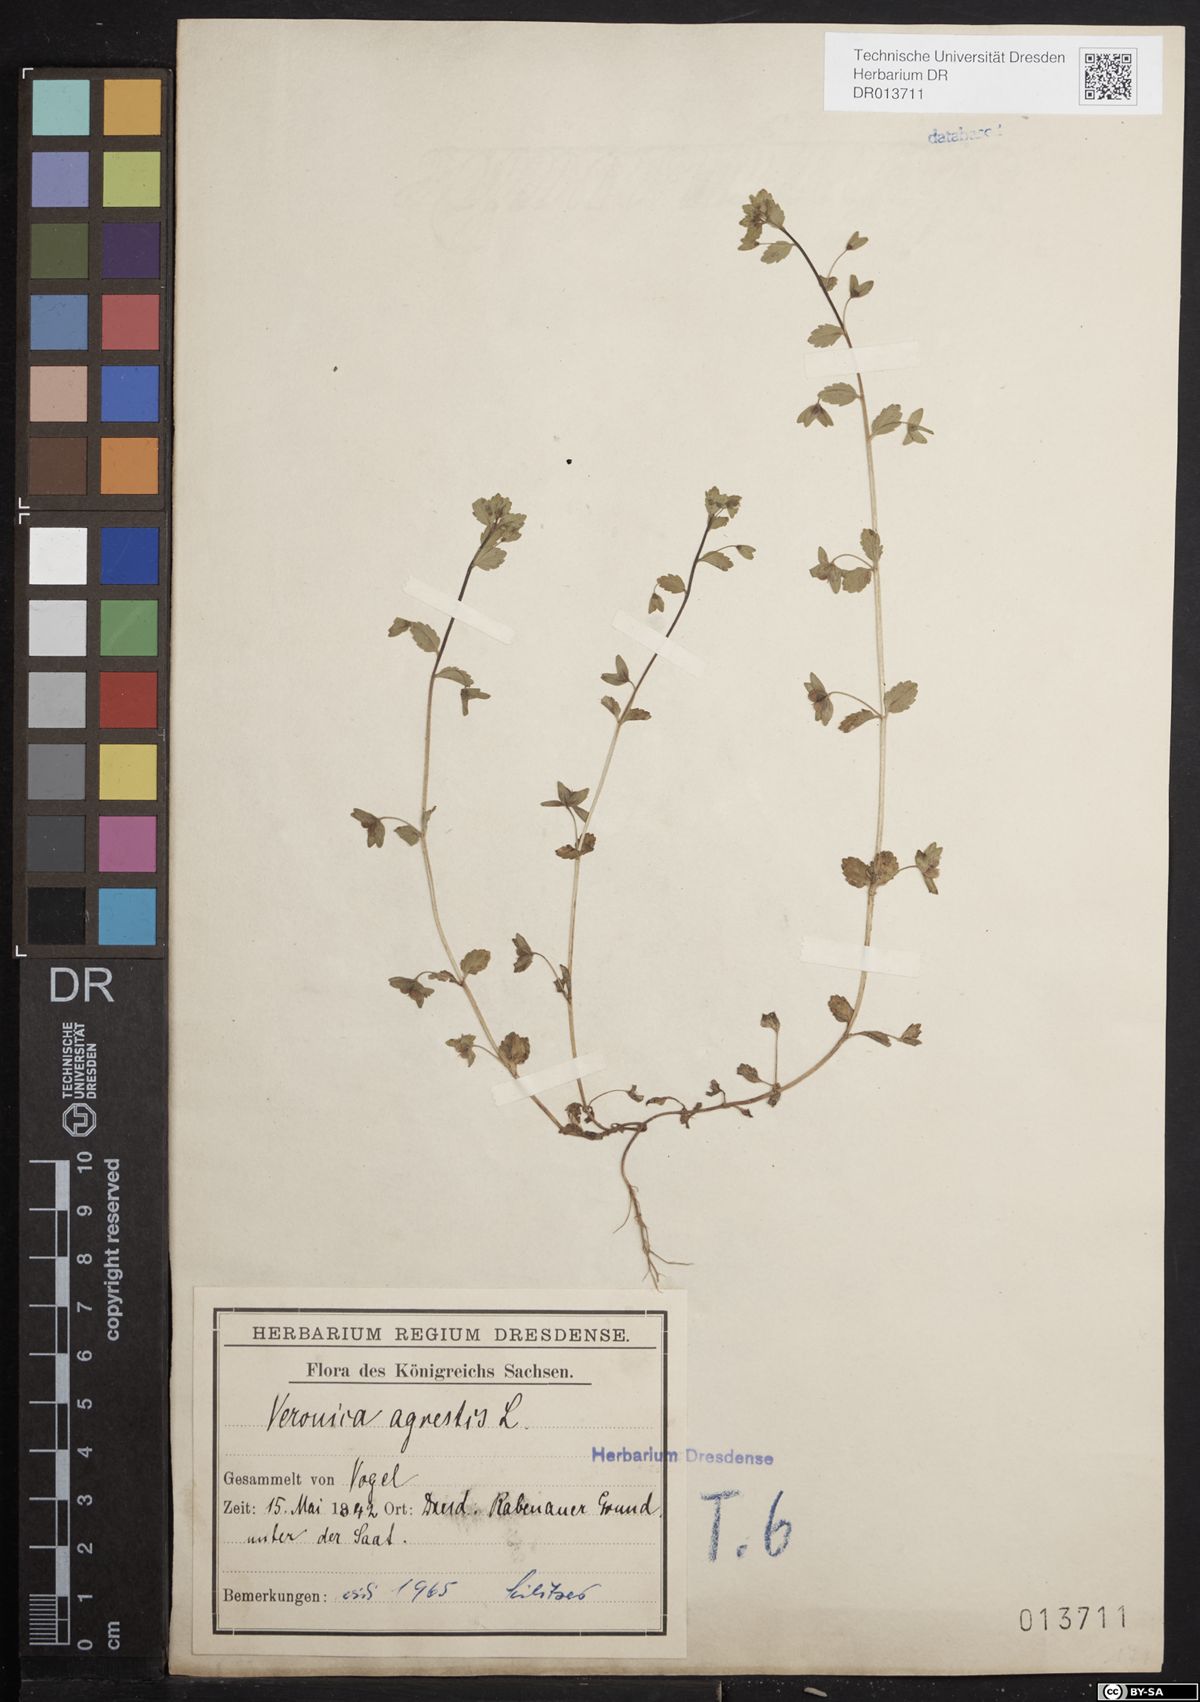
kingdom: Plantae
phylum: Tracheophyta
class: Magnoliopsida
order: Lamiales
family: Plantaginaceae
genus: Veronica
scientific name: Veronica agrestis
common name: Green field-speedwell
